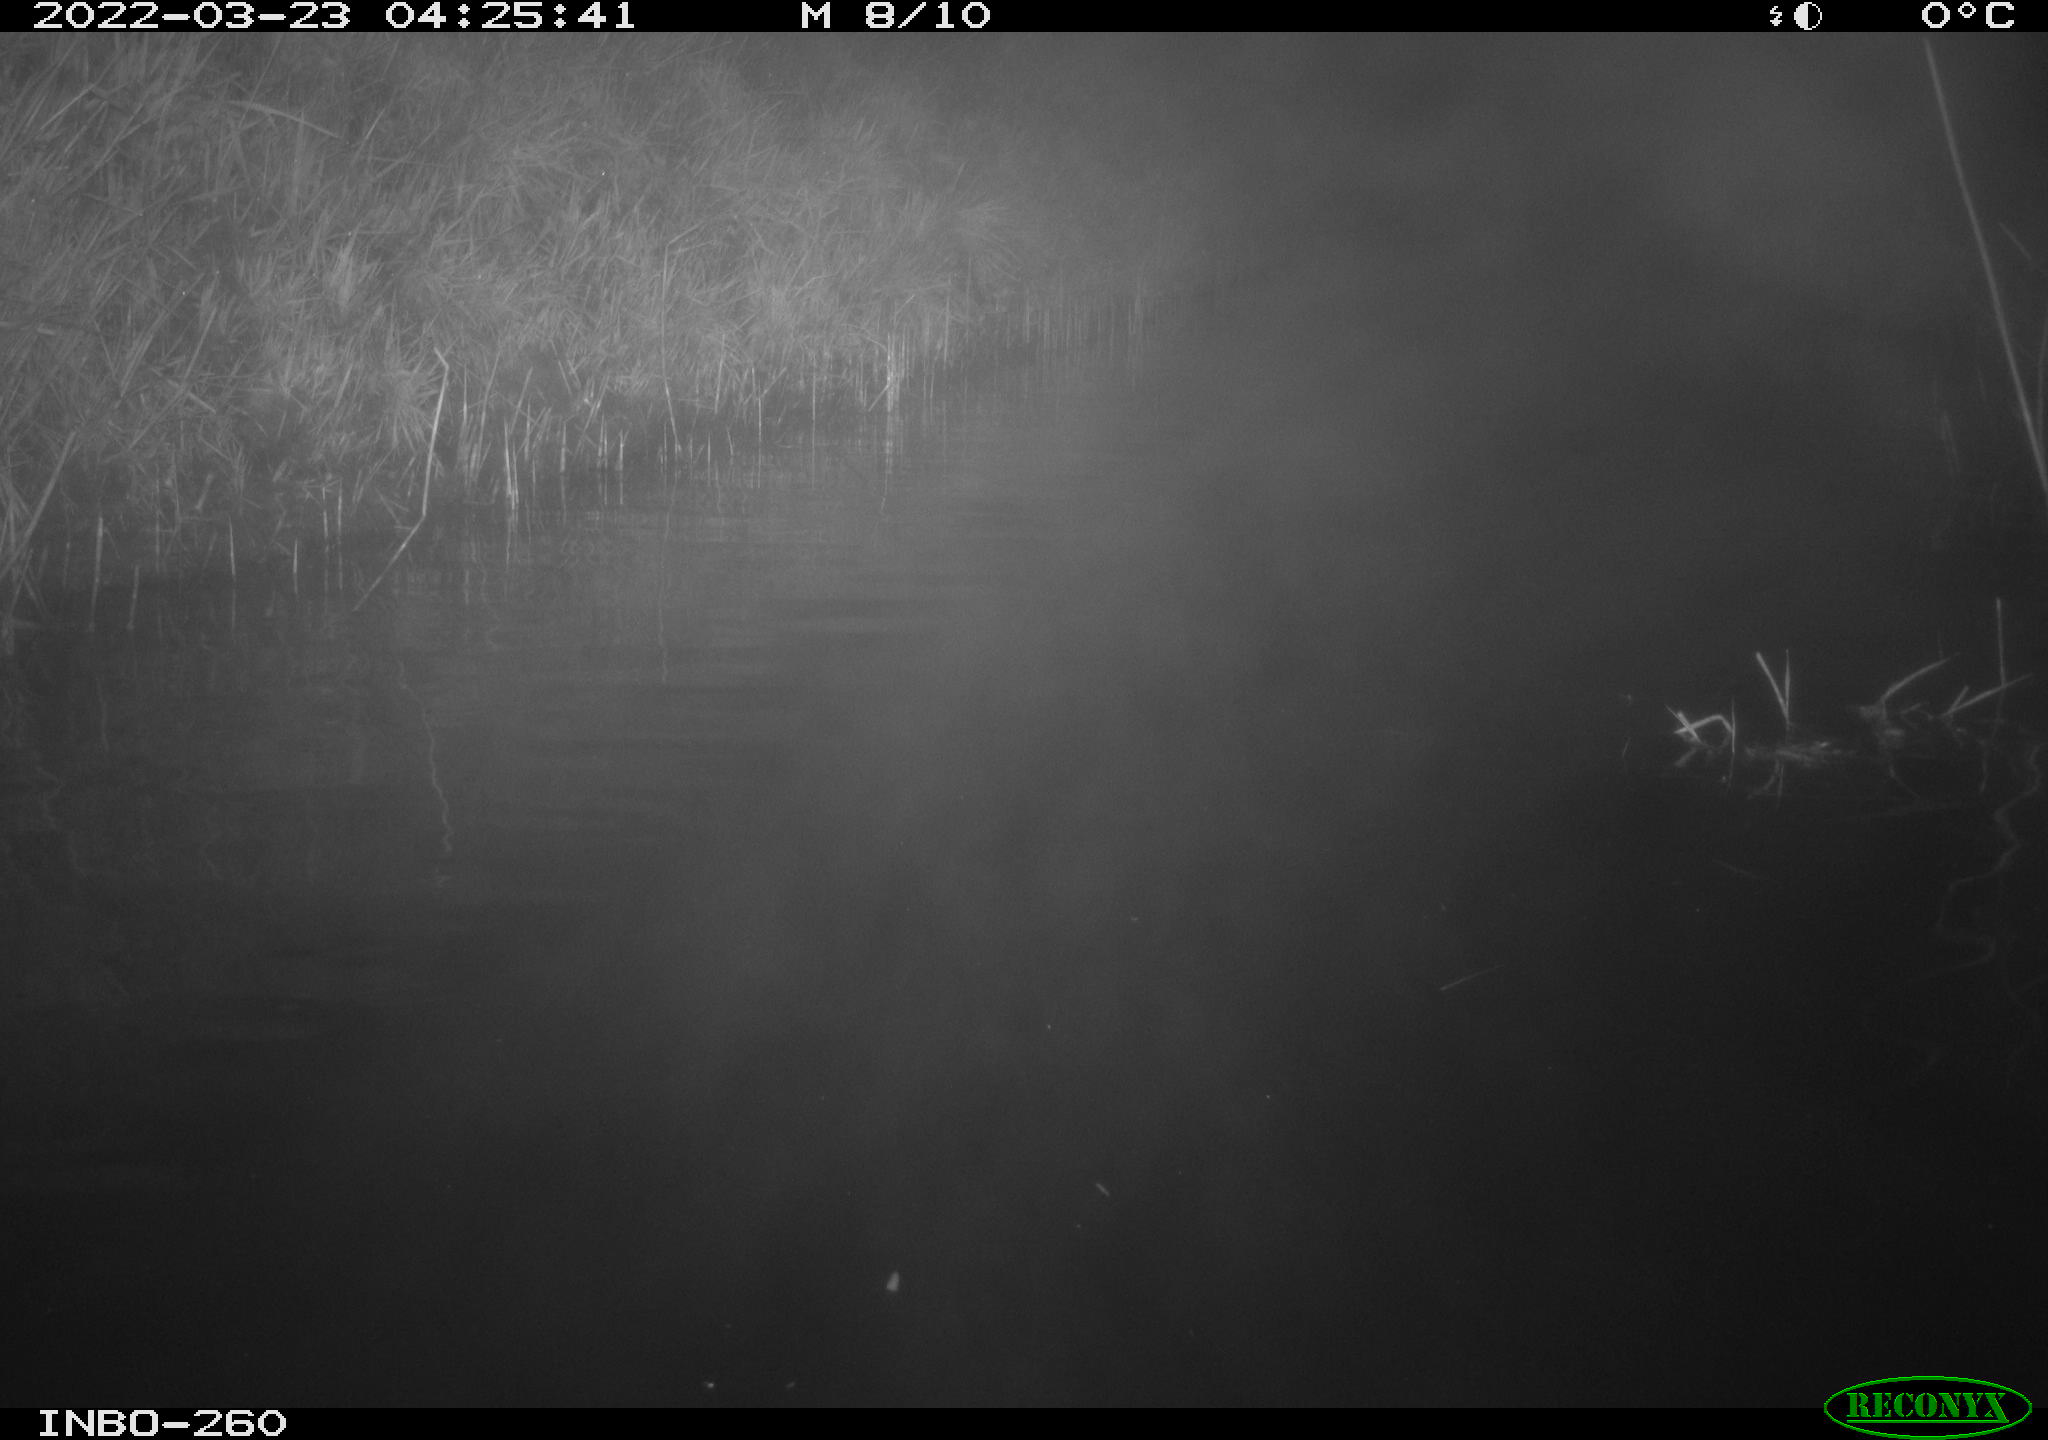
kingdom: Animalia
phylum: Chordata
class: Mammalia
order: Rodentia
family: Cricetidae
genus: Ondatra
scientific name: Ondatra zibethicus
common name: Muskrat
